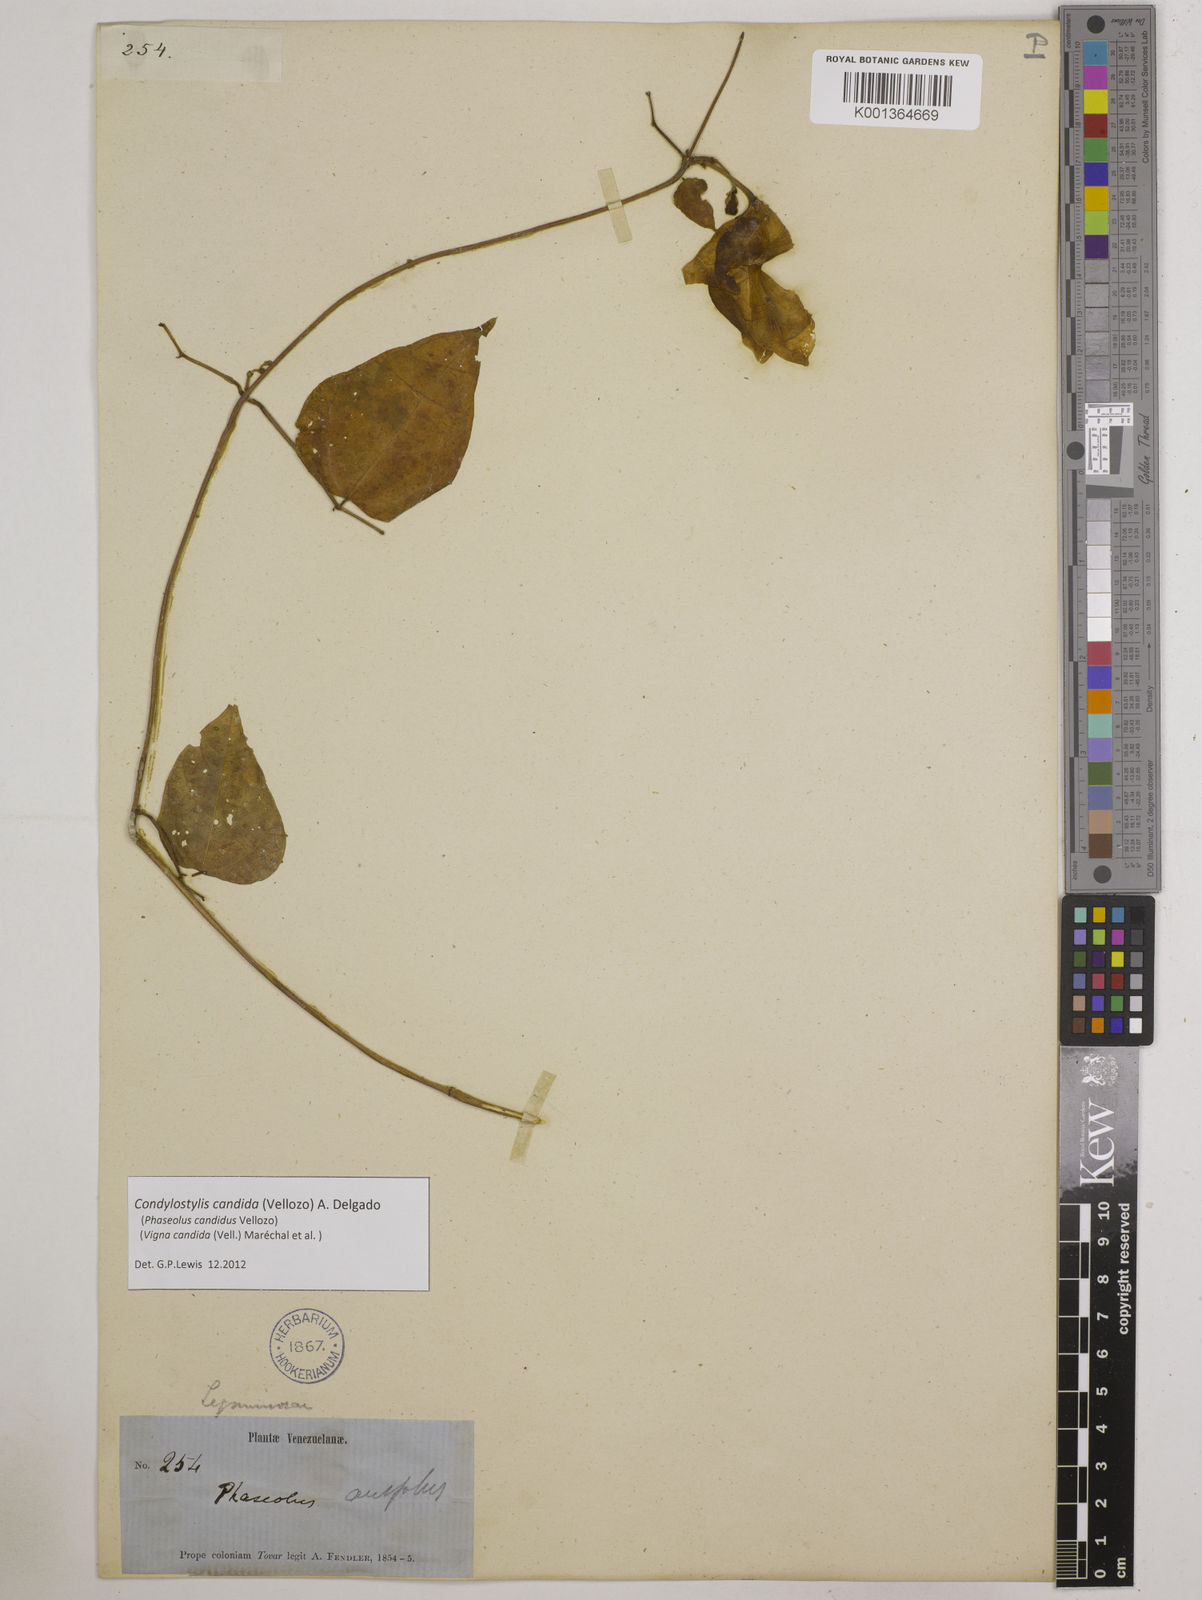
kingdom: Plantae
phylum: Tracheophyta
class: Magnoliopsida
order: Fabales
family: Fabaceae
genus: Condylostylis
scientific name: Condylostylis candida
